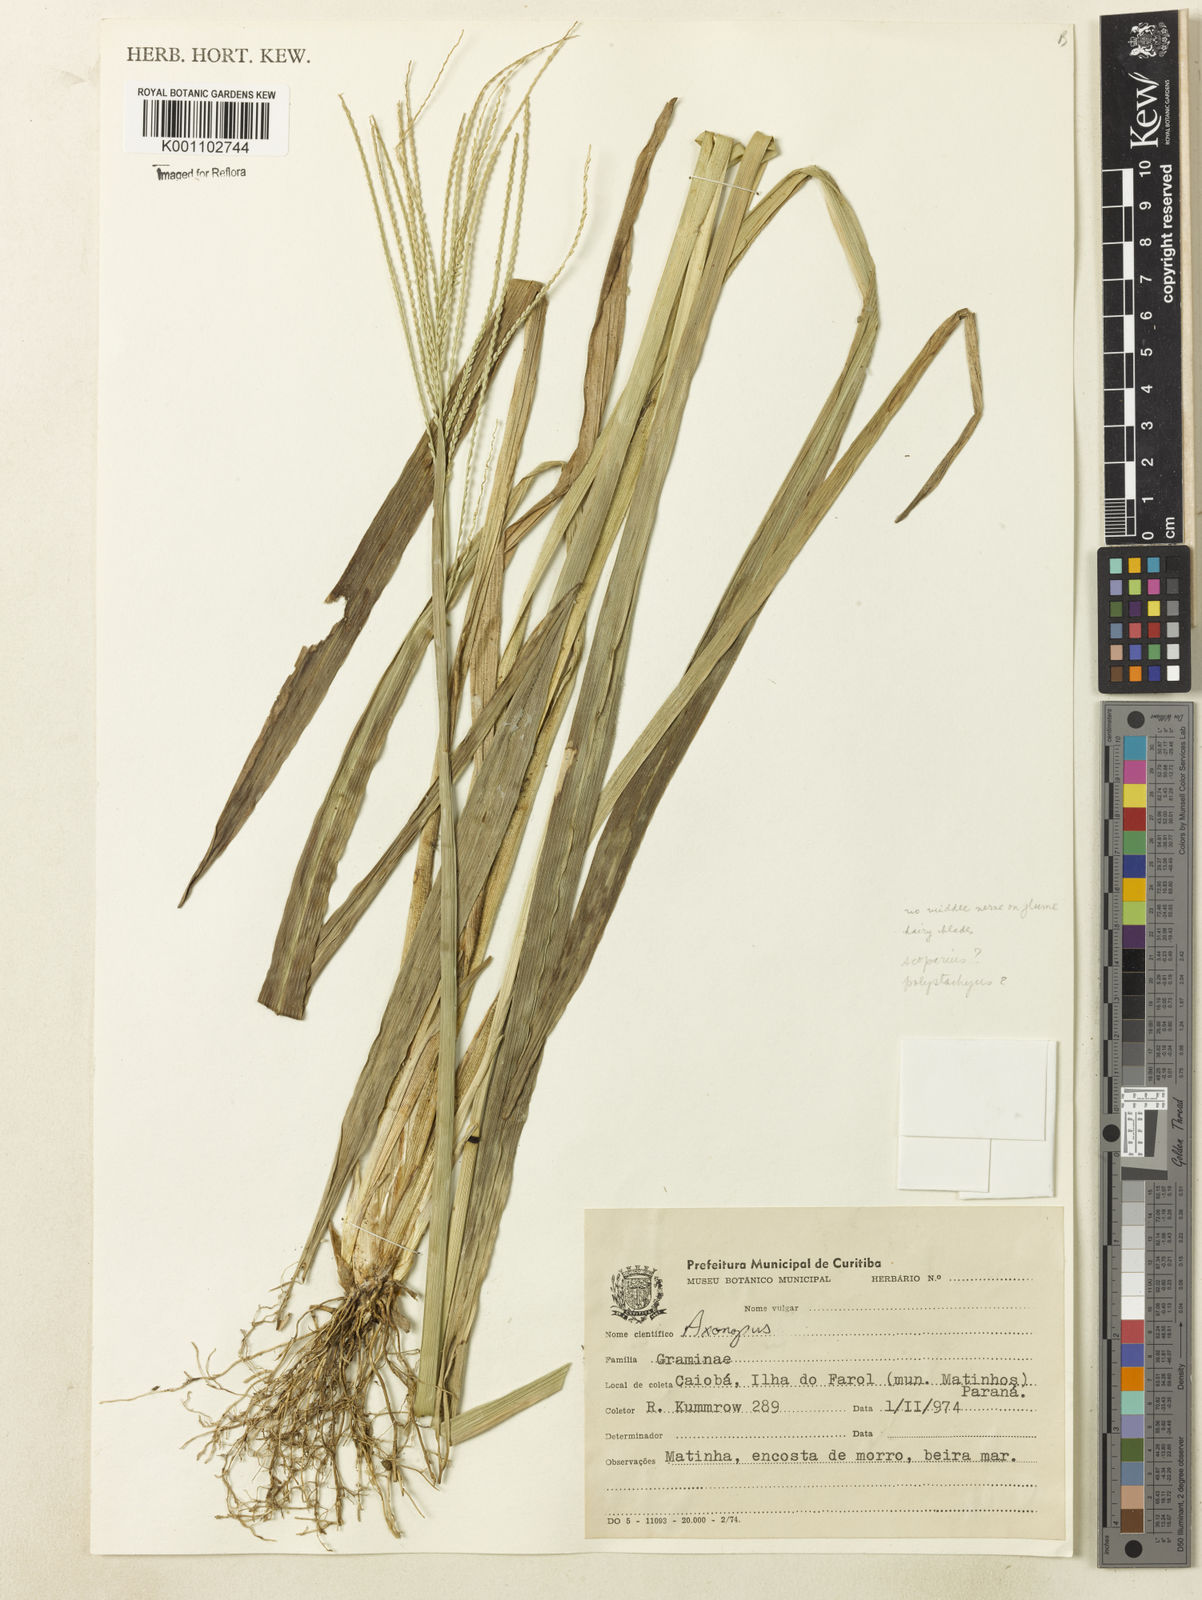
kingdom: Plantae
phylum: Tracheophyta
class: Liliopsida
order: Poales
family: Poaceae
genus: Axonopus
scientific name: Axonopus polystachyus
